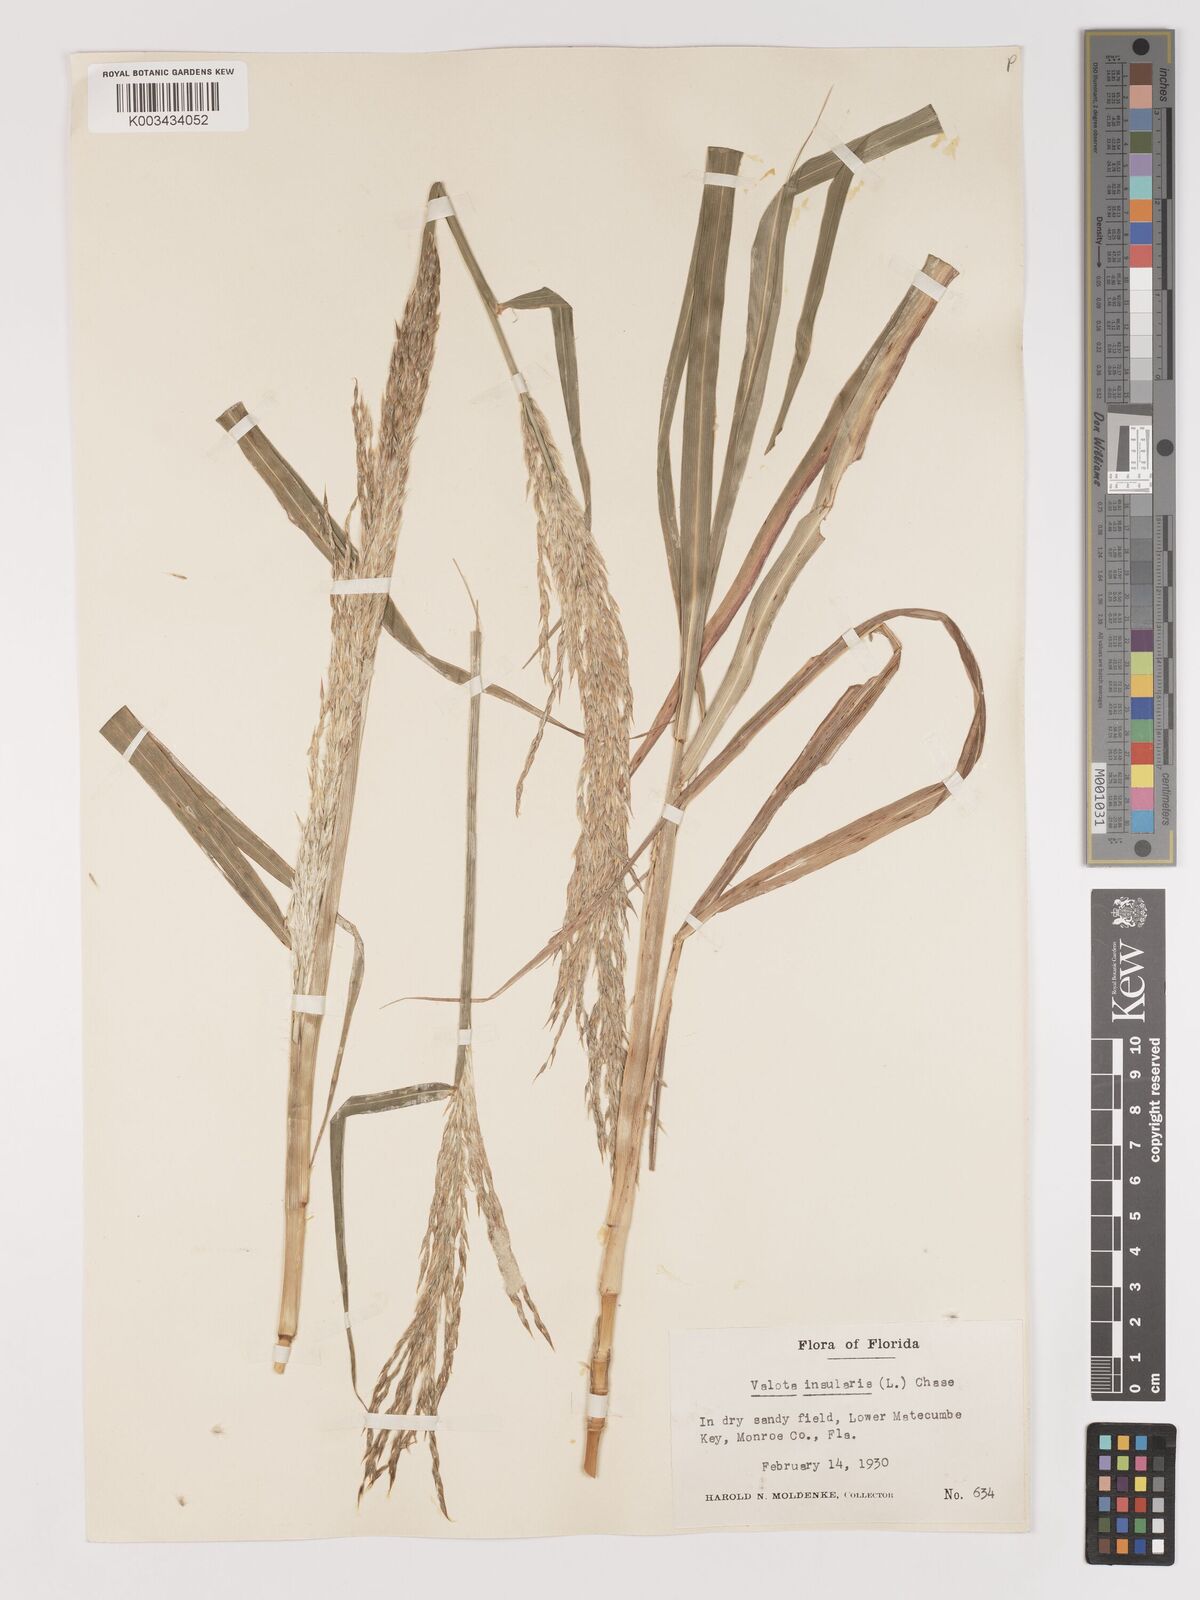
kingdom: Plantae
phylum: Tracheophyta
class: Liliopsida
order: Poales
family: Poaceae
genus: Digitaria
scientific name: Digitaria insularis
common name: Sourgrass
